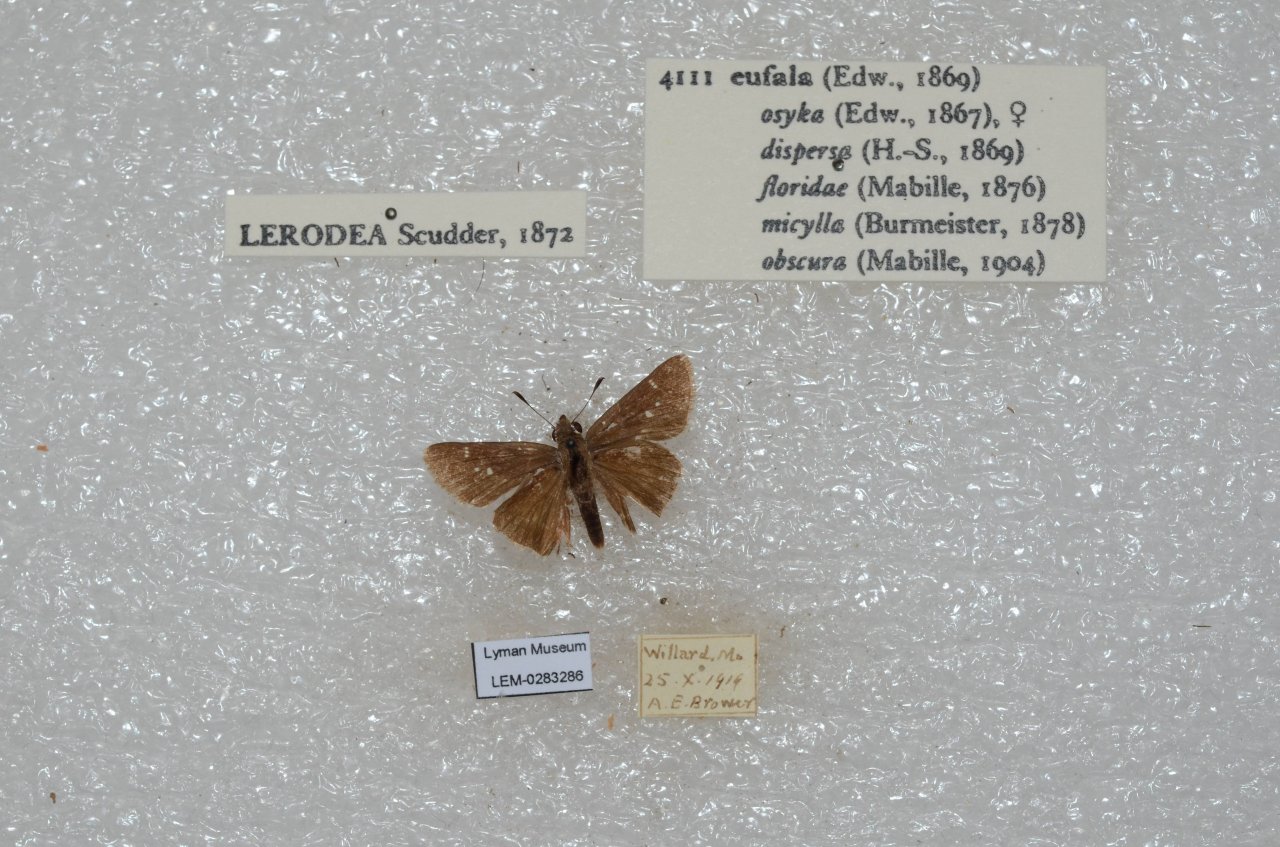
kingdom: Animalia
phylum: Arthropoda
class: Insecta
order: Lepidoptera
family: Hesperiidae
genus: Lerodea
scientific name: Lerodea eufala
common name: Eufala Skipper
